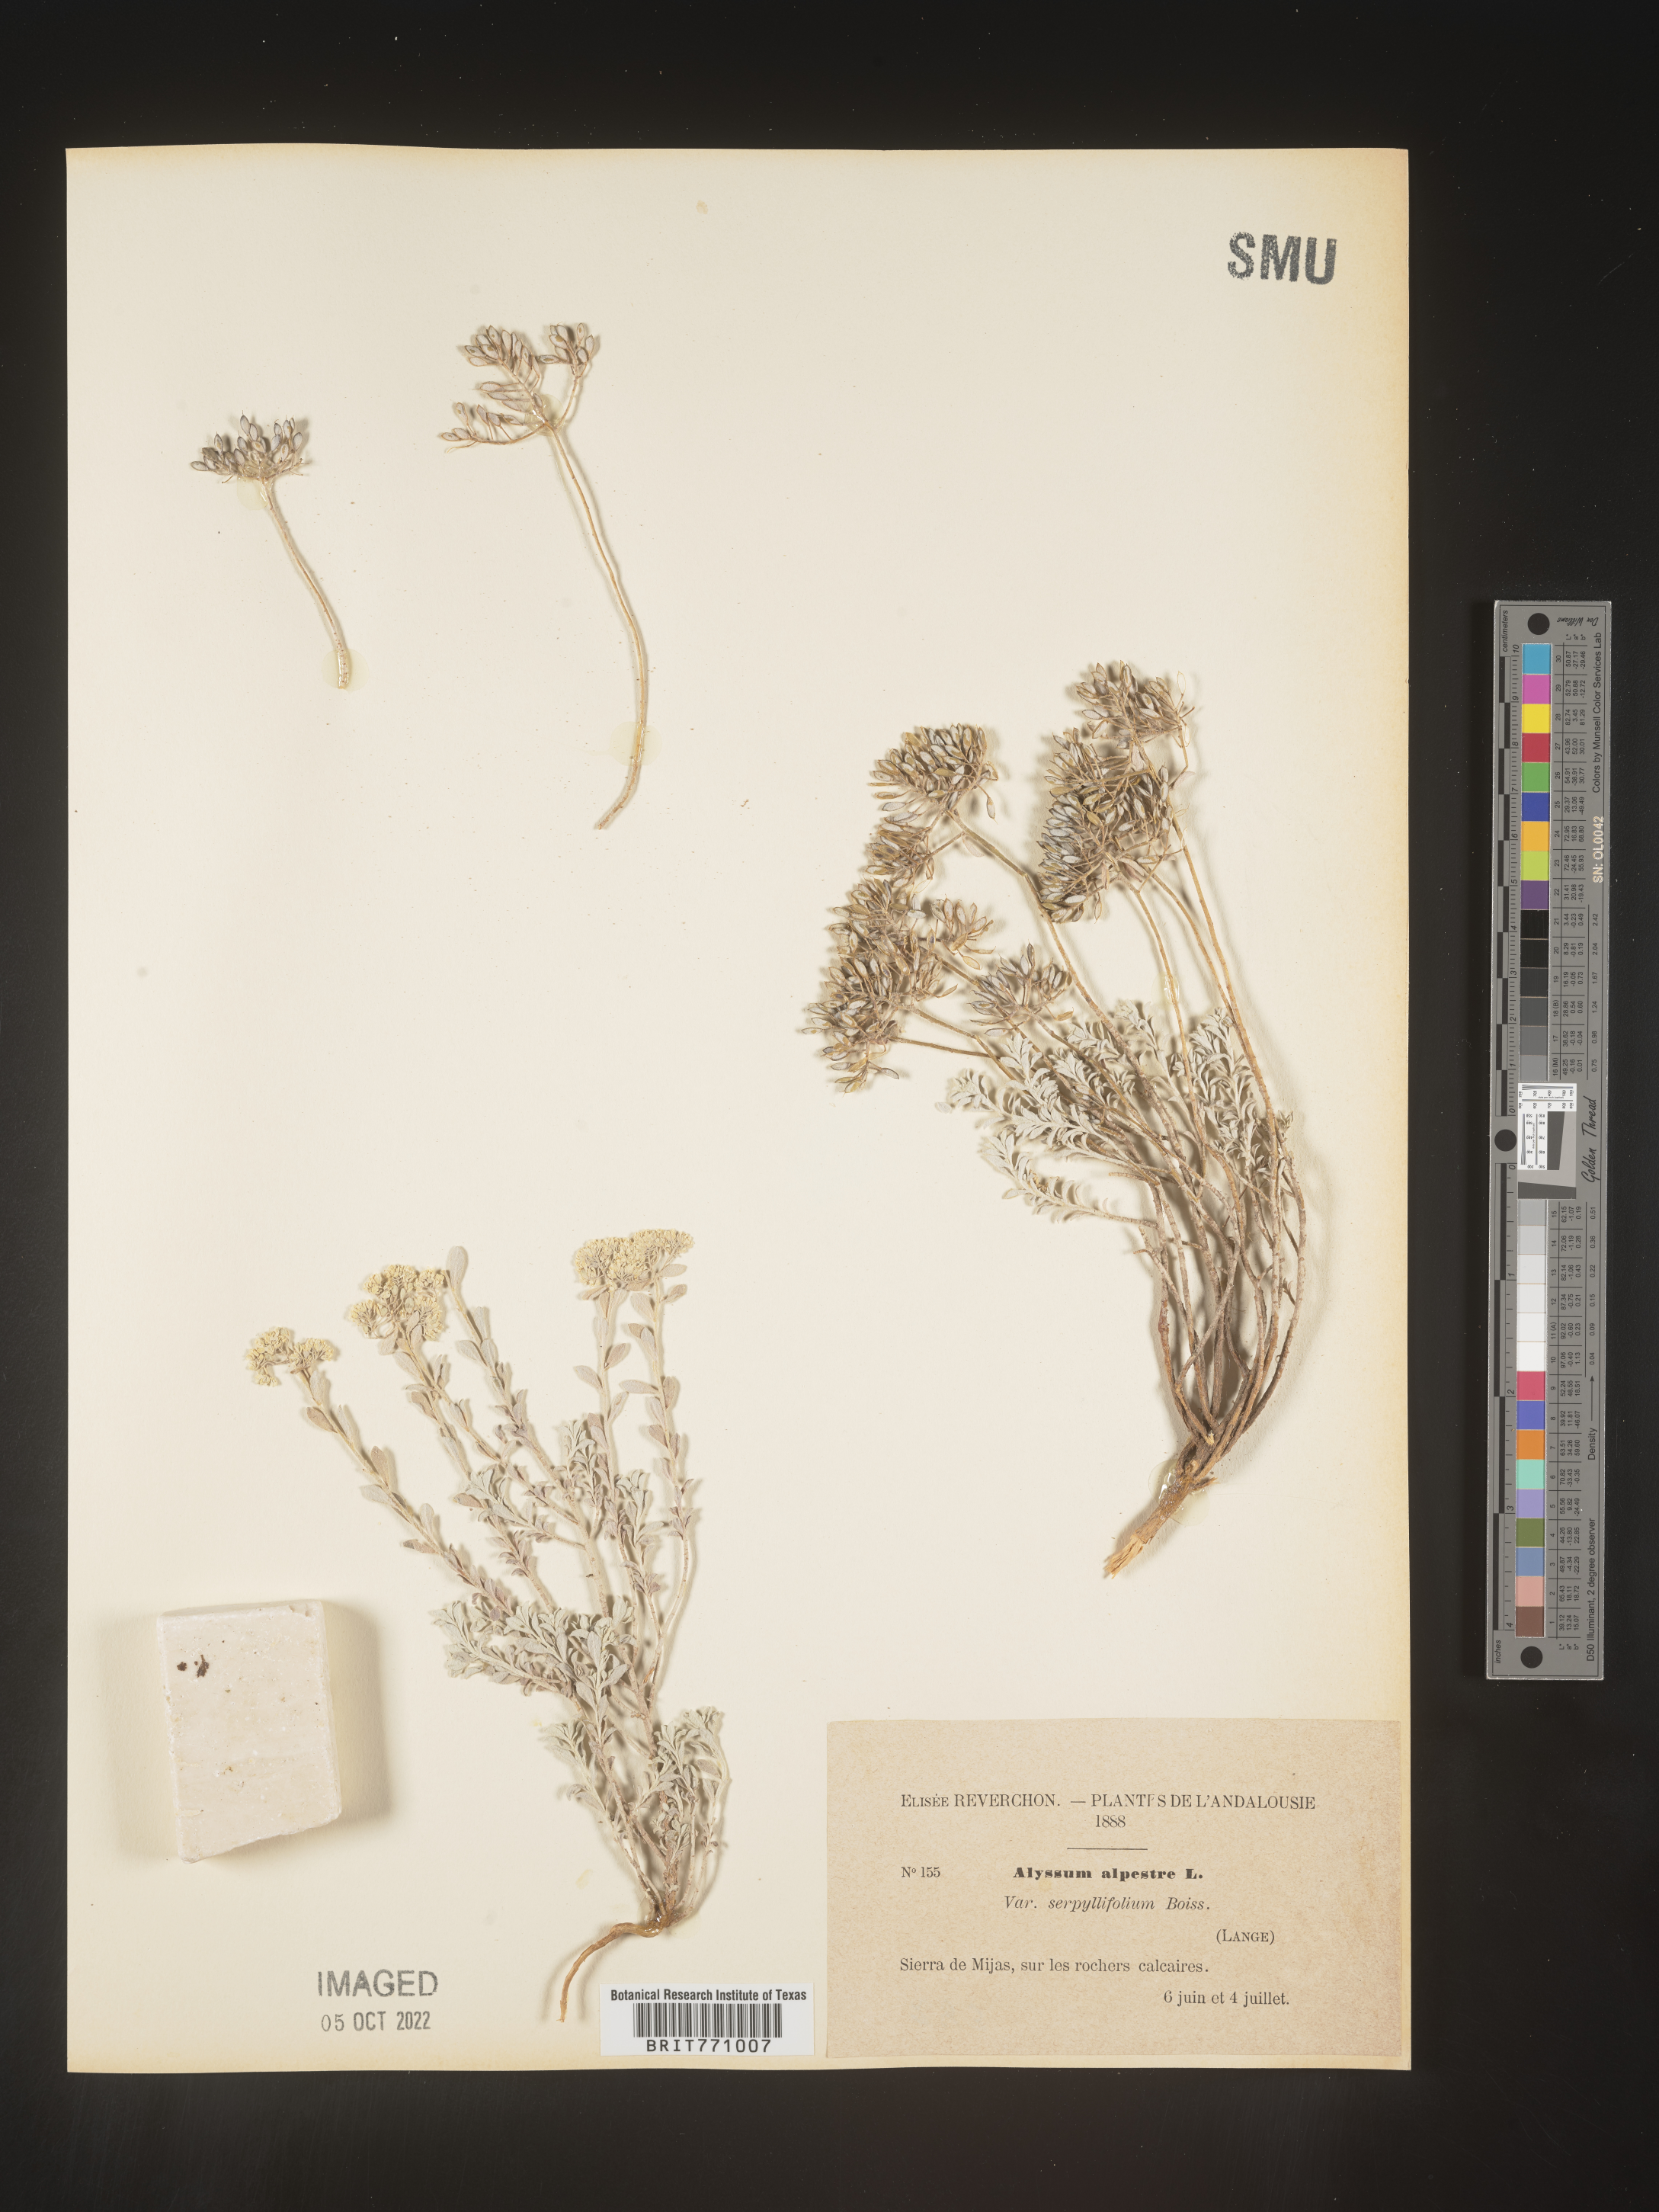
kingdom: Plantae
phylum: Tracheophyta
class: Magnoliopsida
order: Brassicales
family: Brassicaceae
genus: Alyssum
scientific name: Alyssum
